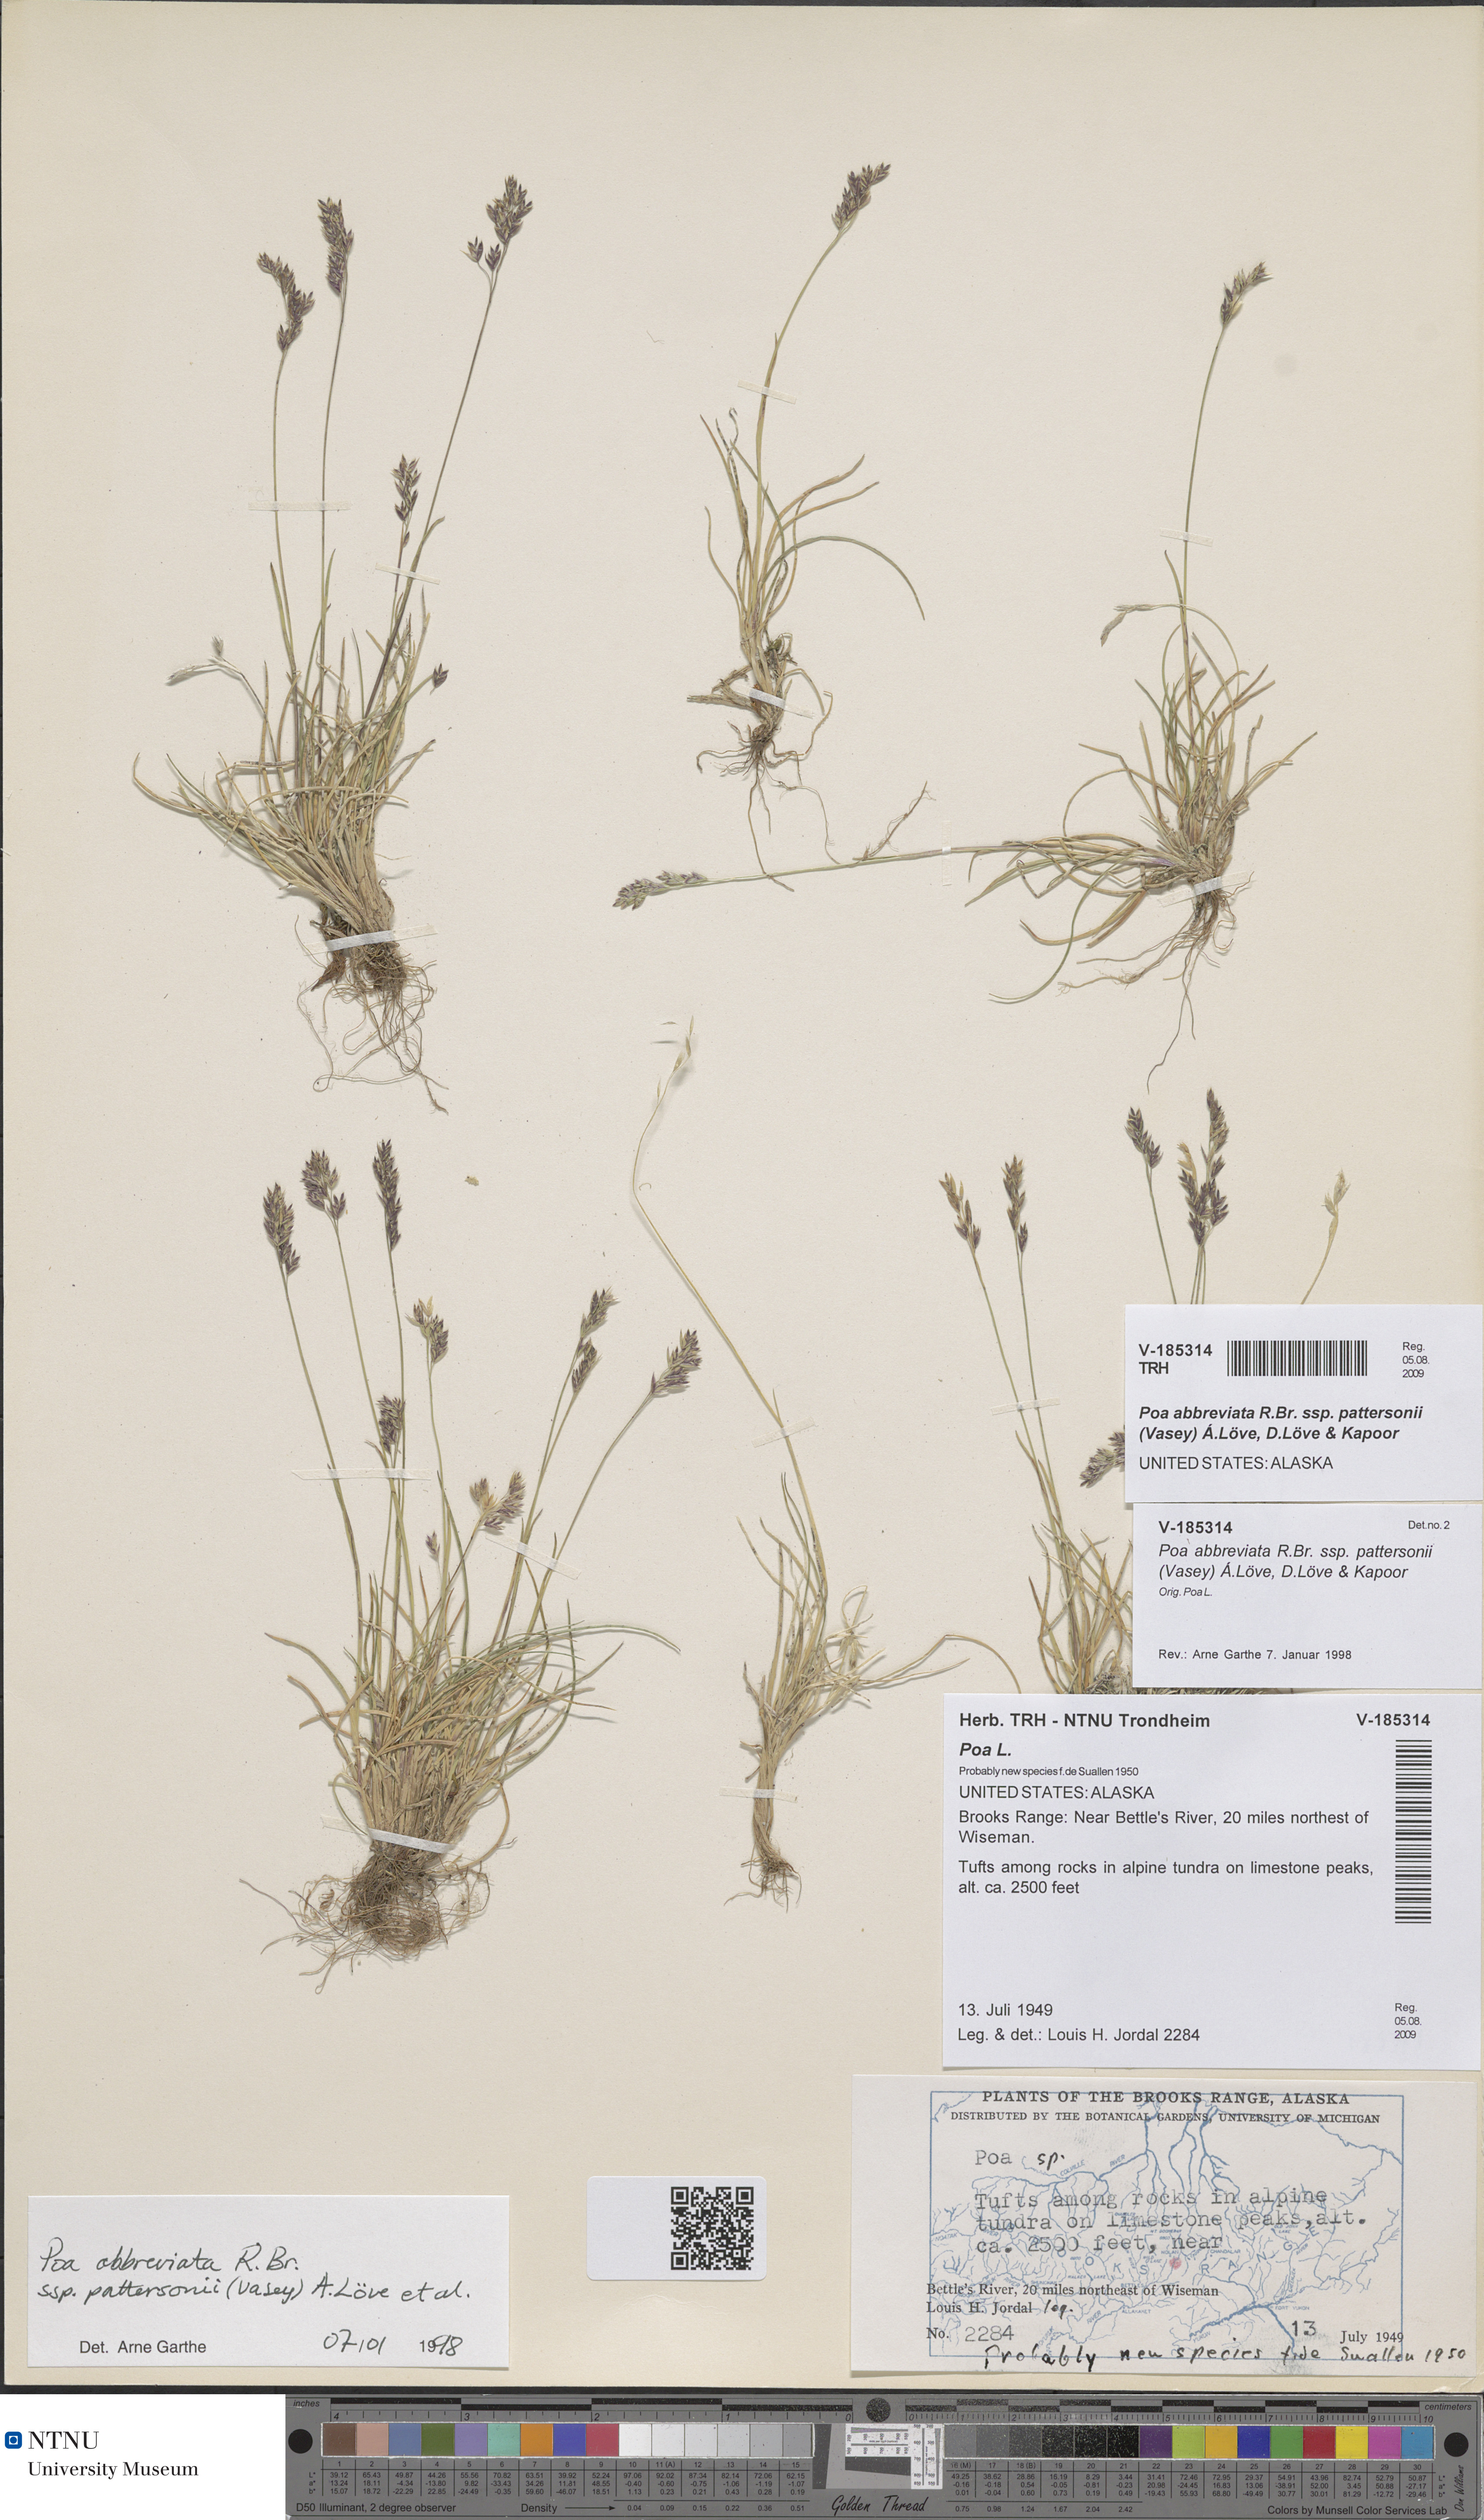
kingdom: Plantae
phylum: Tracheophyta
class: Liliopsida
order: Poales
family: Poaceae
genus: Poa
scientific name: Poa pattersonii
